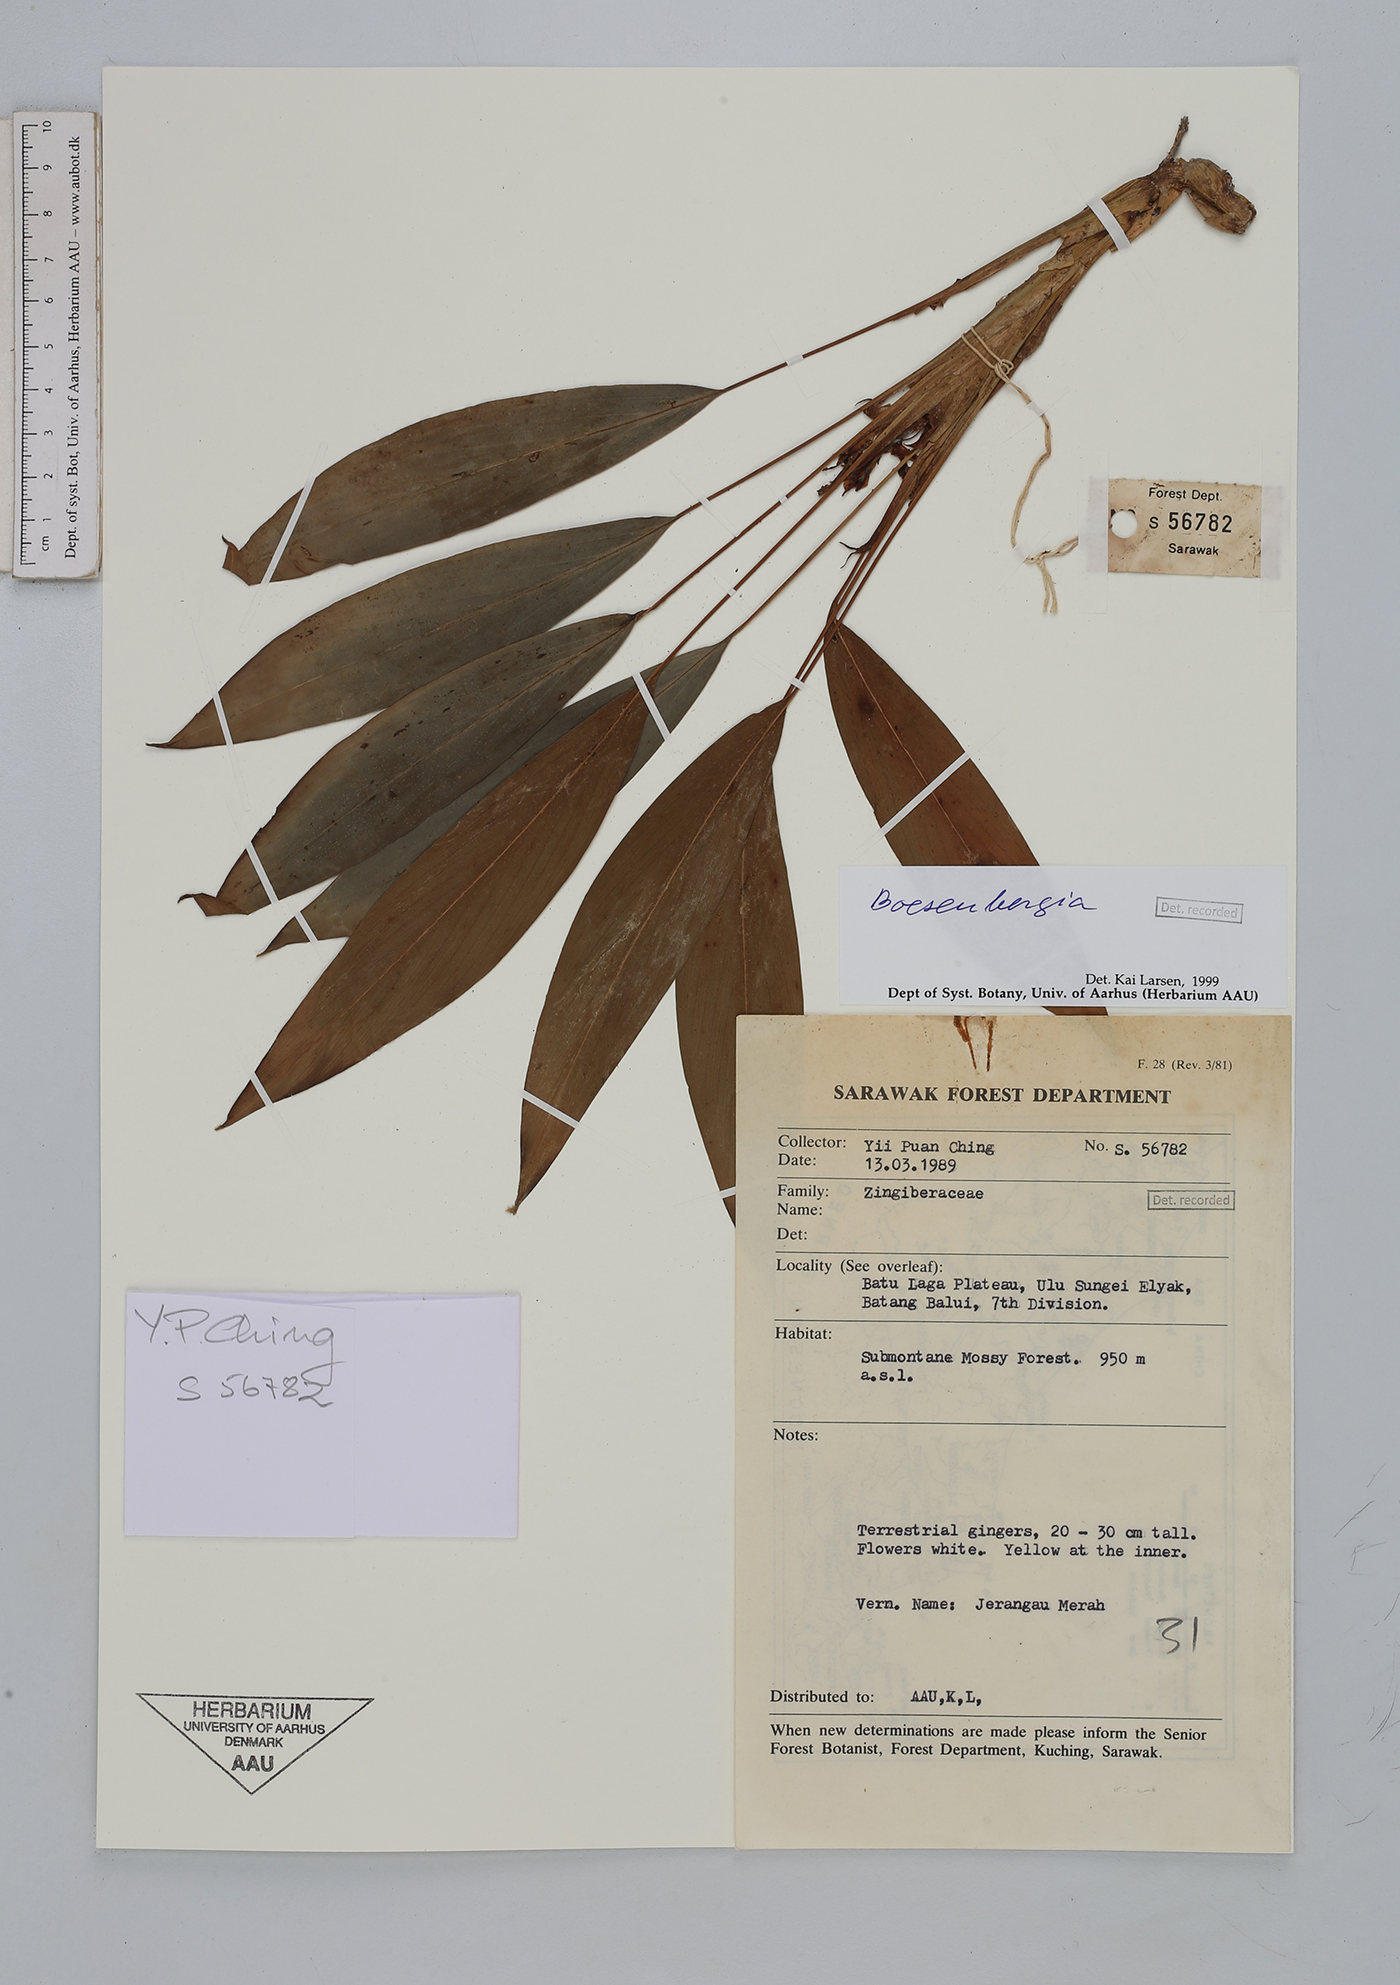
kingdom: Plantae
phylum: Tracheophyta
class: Liliopsida
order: Zingiberales
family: Zingiberaceae
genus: Boesenbergia
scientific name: Boesenbergia
